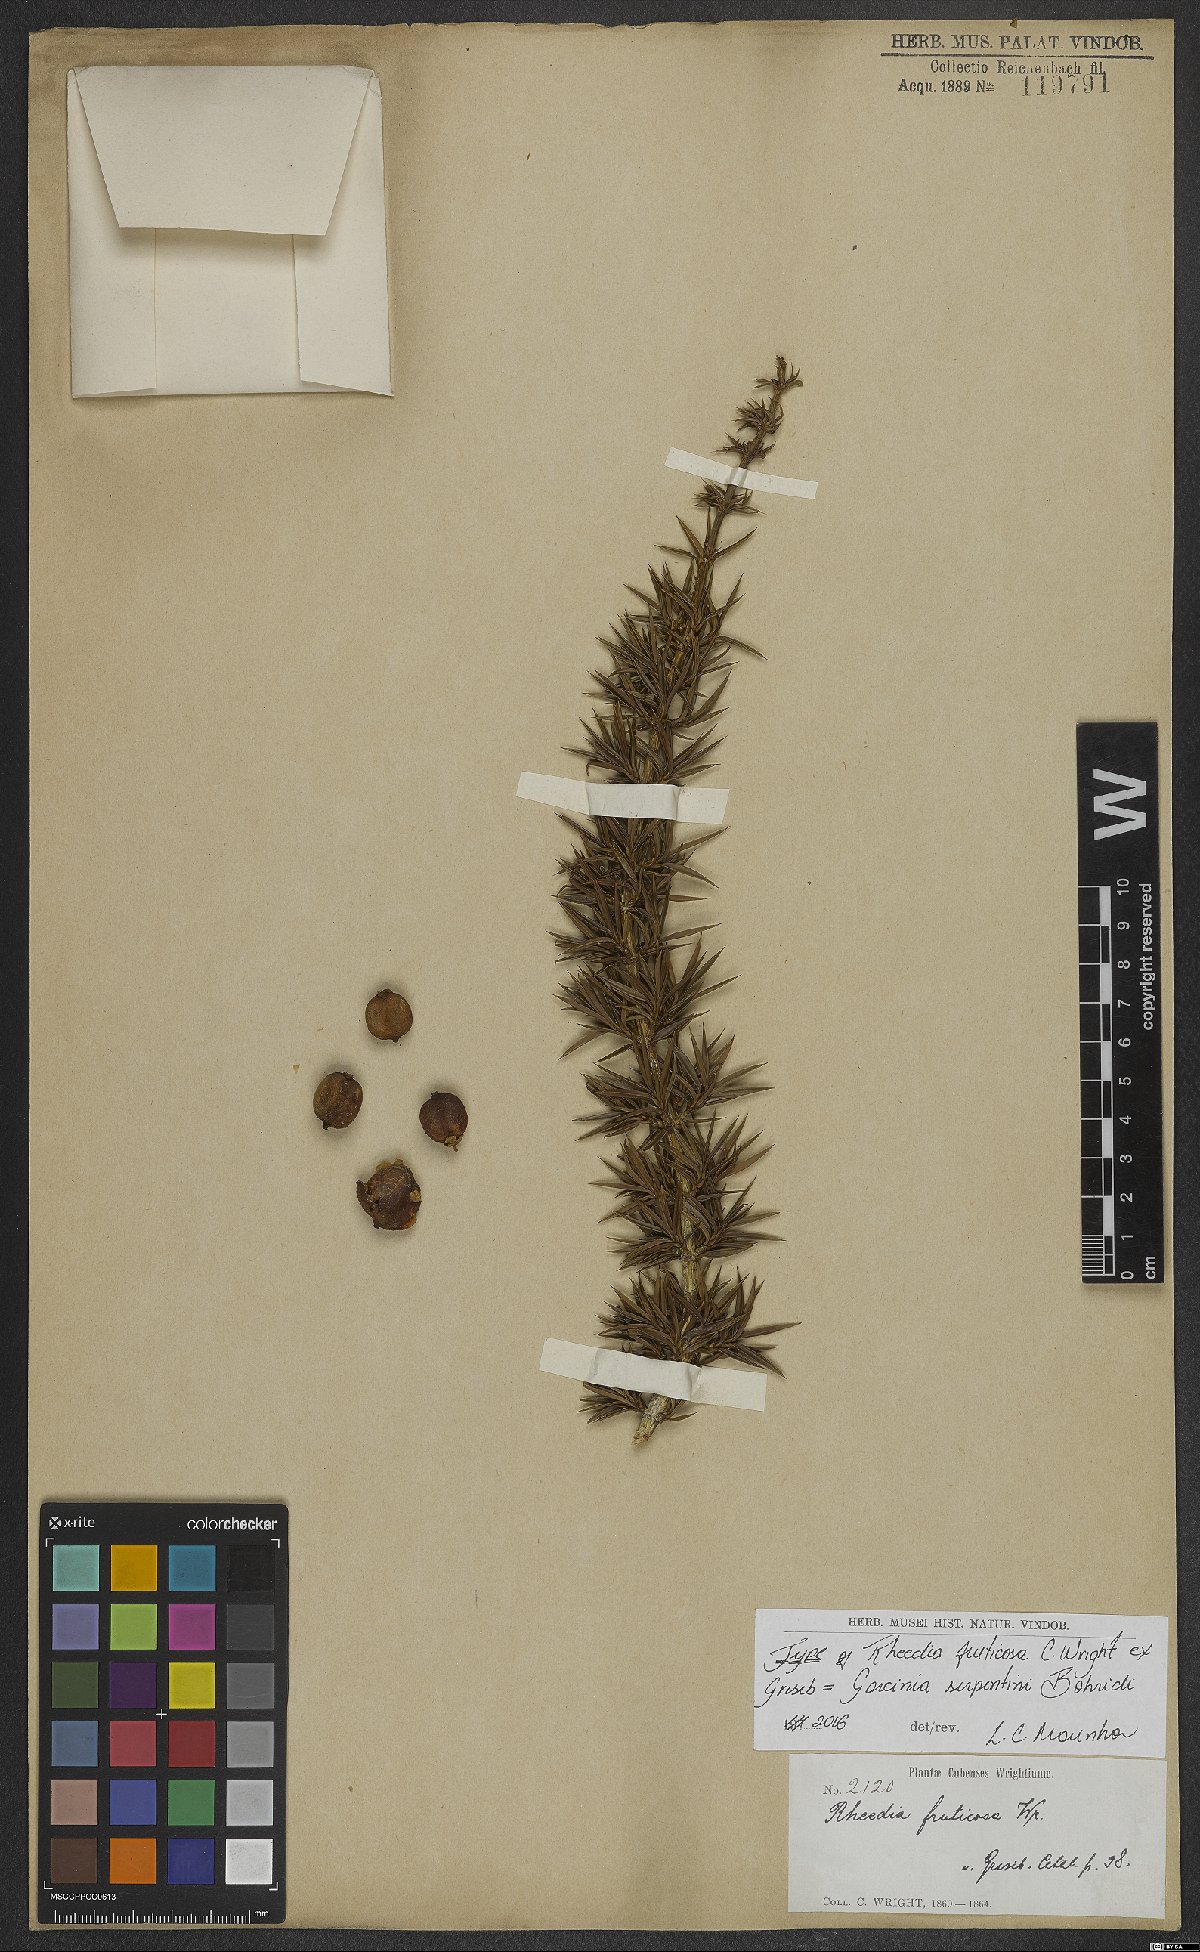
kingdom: Plantae
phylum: Tracheophyta
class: Magnoliopsida
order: Malpighiales
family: Clusiaceae
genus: Garcinia
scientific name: Garcinia
